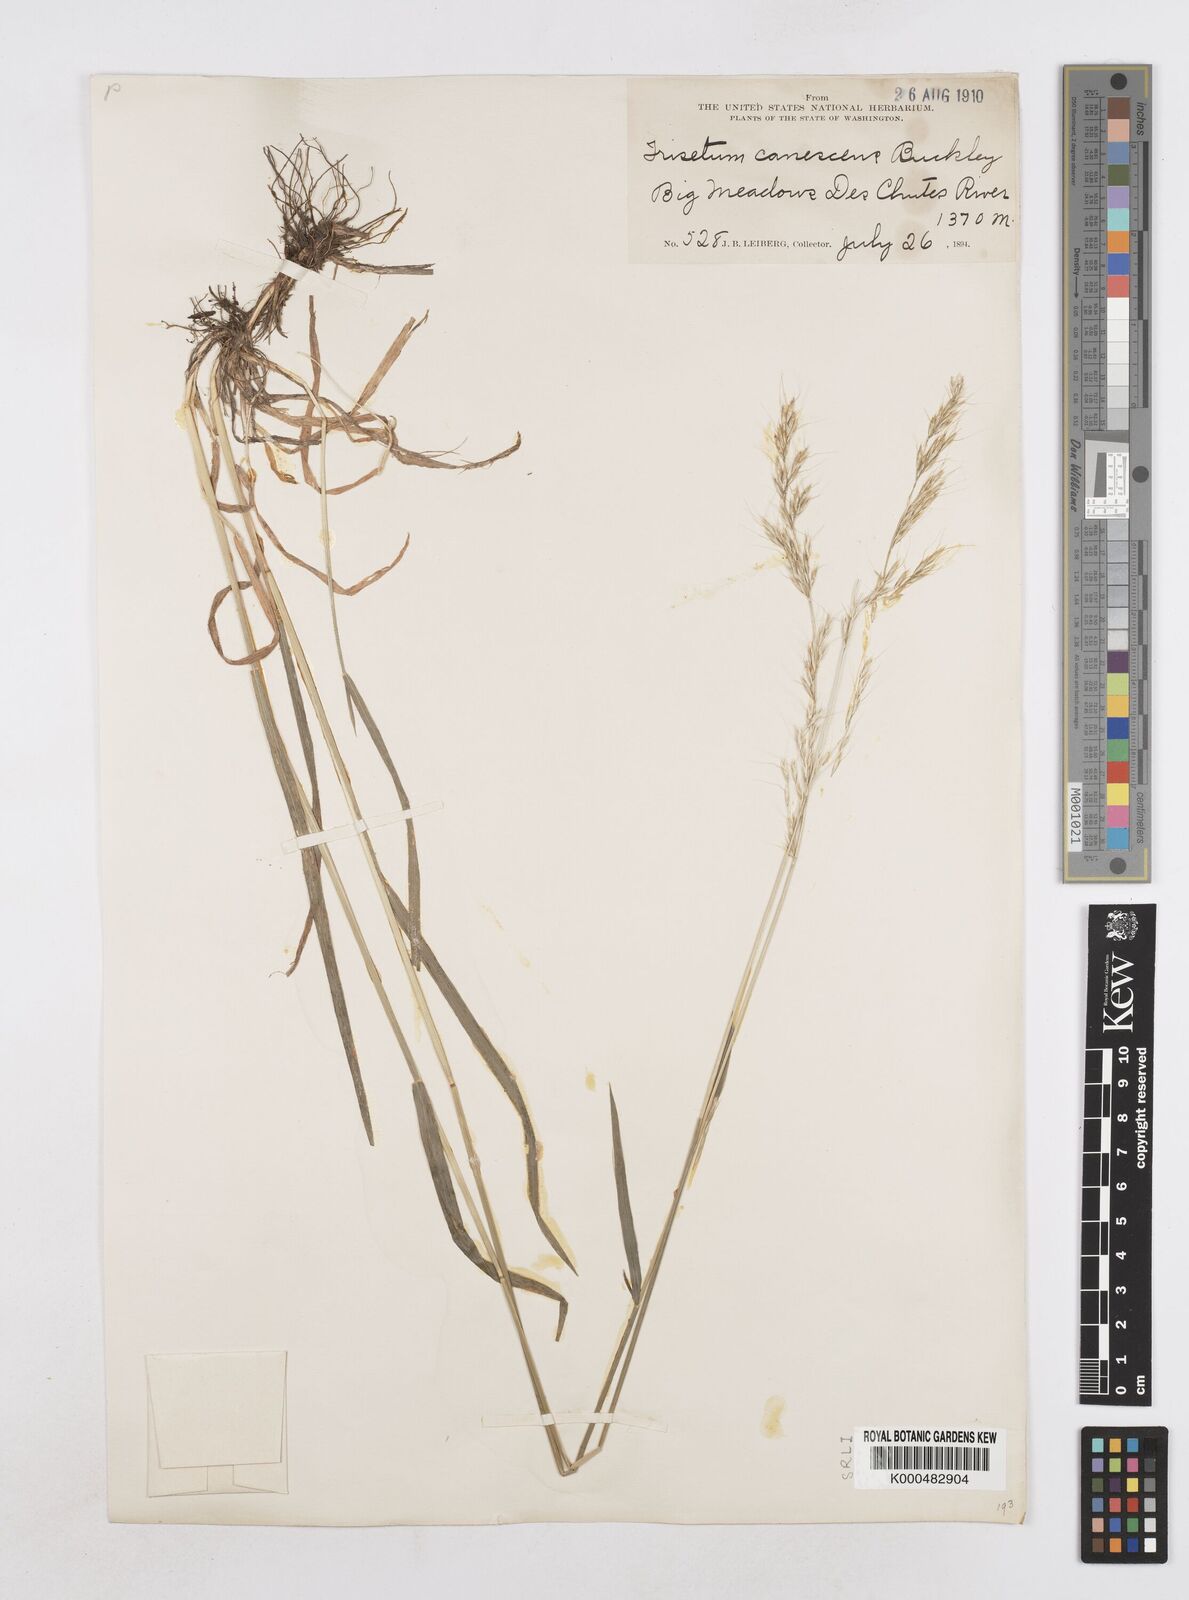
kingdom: Plantae
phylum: Tracheophyta
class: Liliopsida
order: Poales
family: Poaceae
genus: Graphephorum
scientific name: Graphephorum canescens
